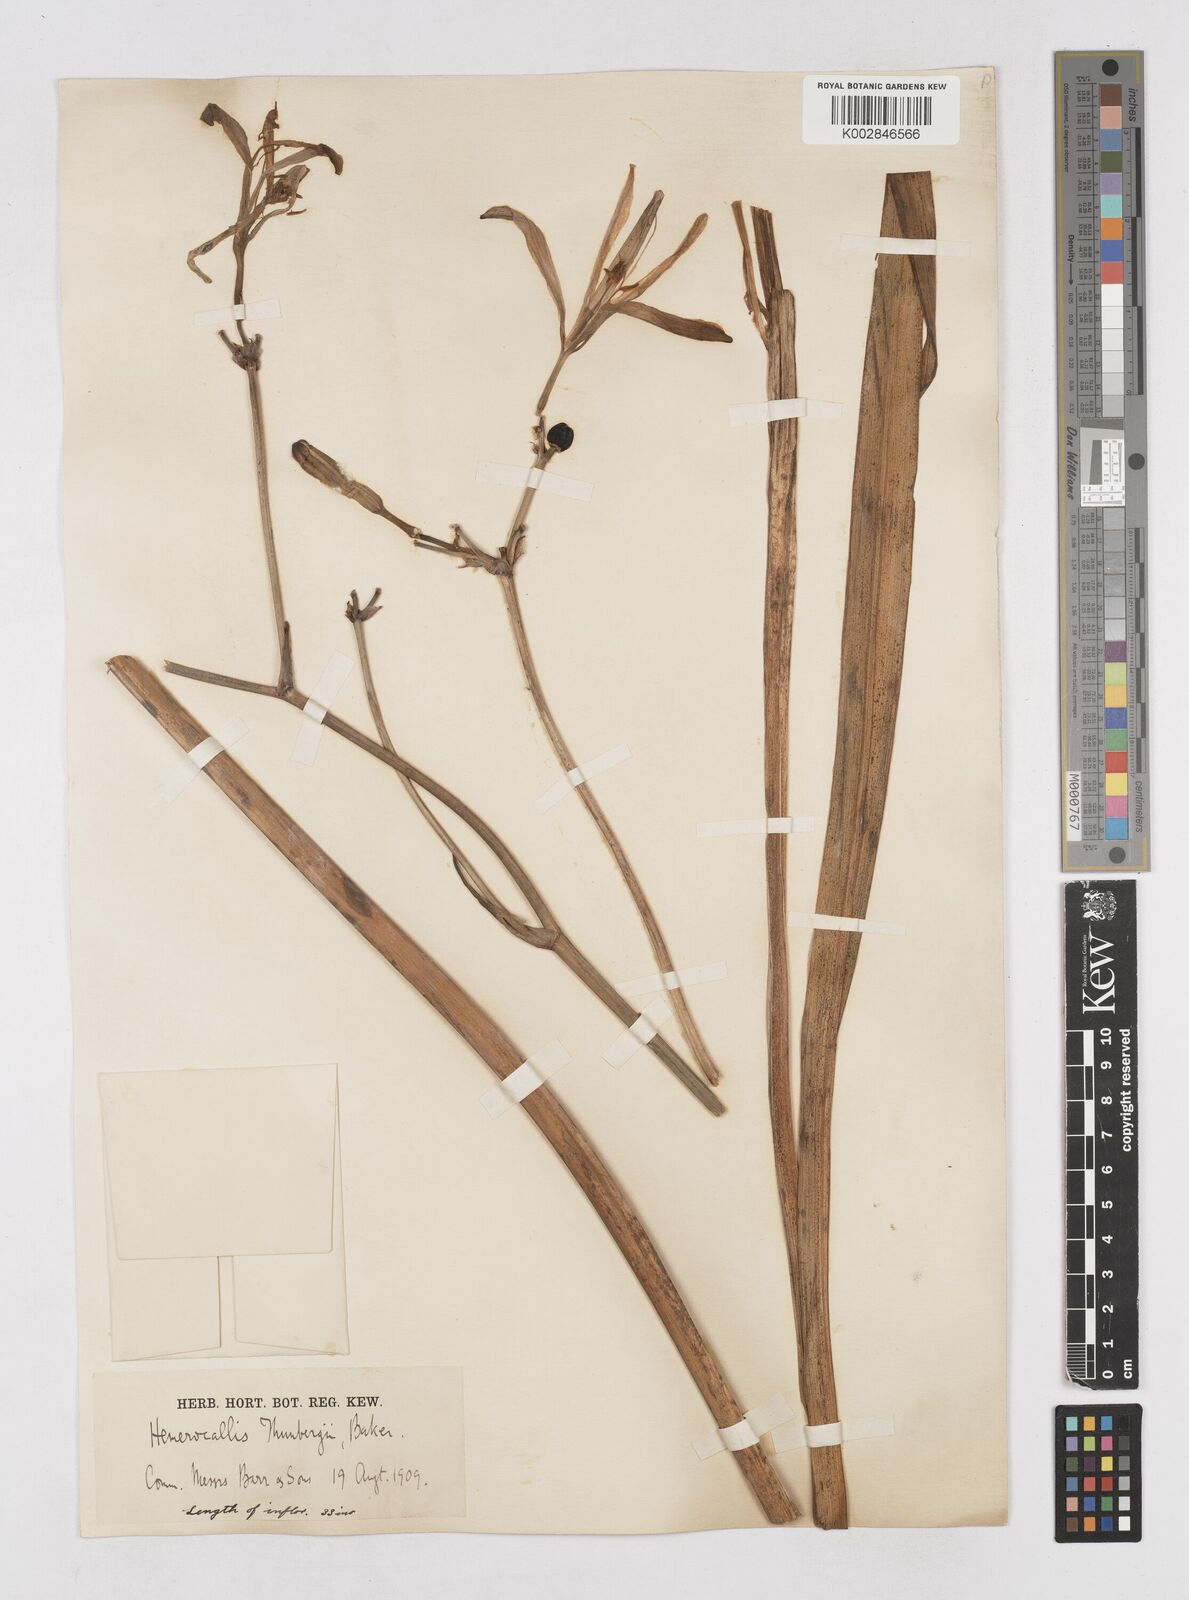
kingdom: Plantae
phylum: Tracheophyta
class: Liliopsida
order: Asparagales
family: Asphodelaceae
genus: Hemerocallis
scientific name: Hemerocallis thunbergii
